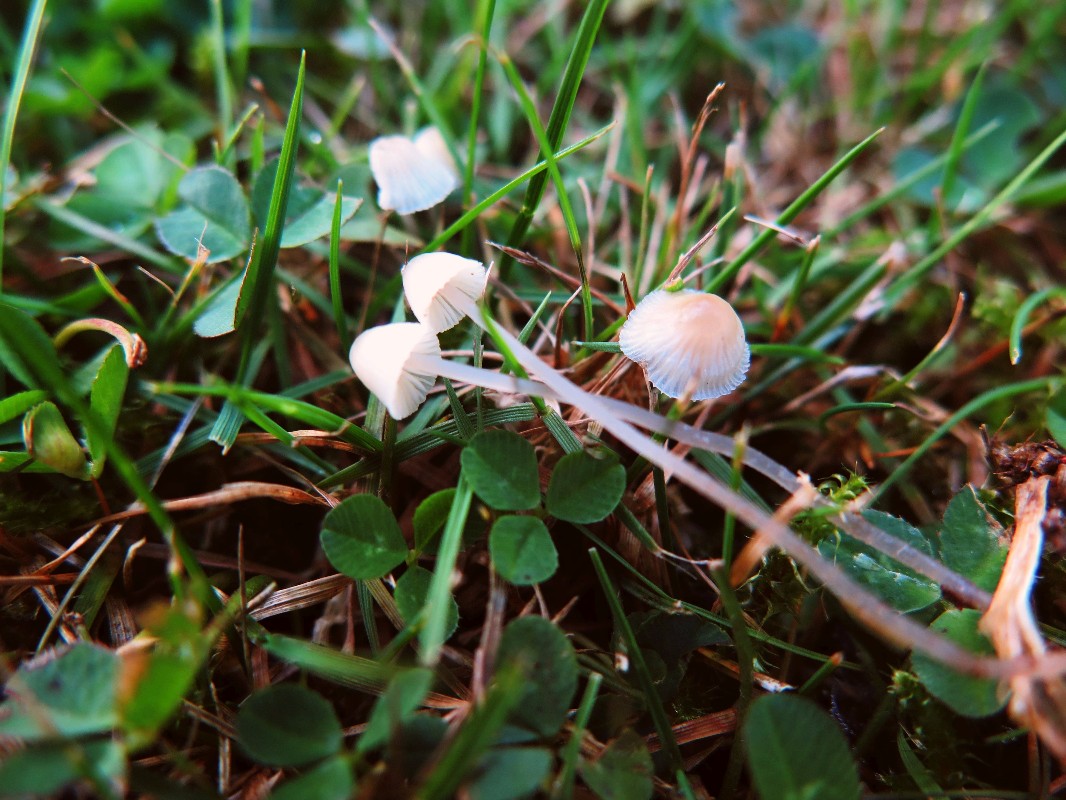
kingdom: Fungi
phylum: Basidiomycota
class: Agaricomycetes
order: Agaricales
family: Mycenaceae
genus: Mycena
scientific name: Mycena
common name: huesvamp
